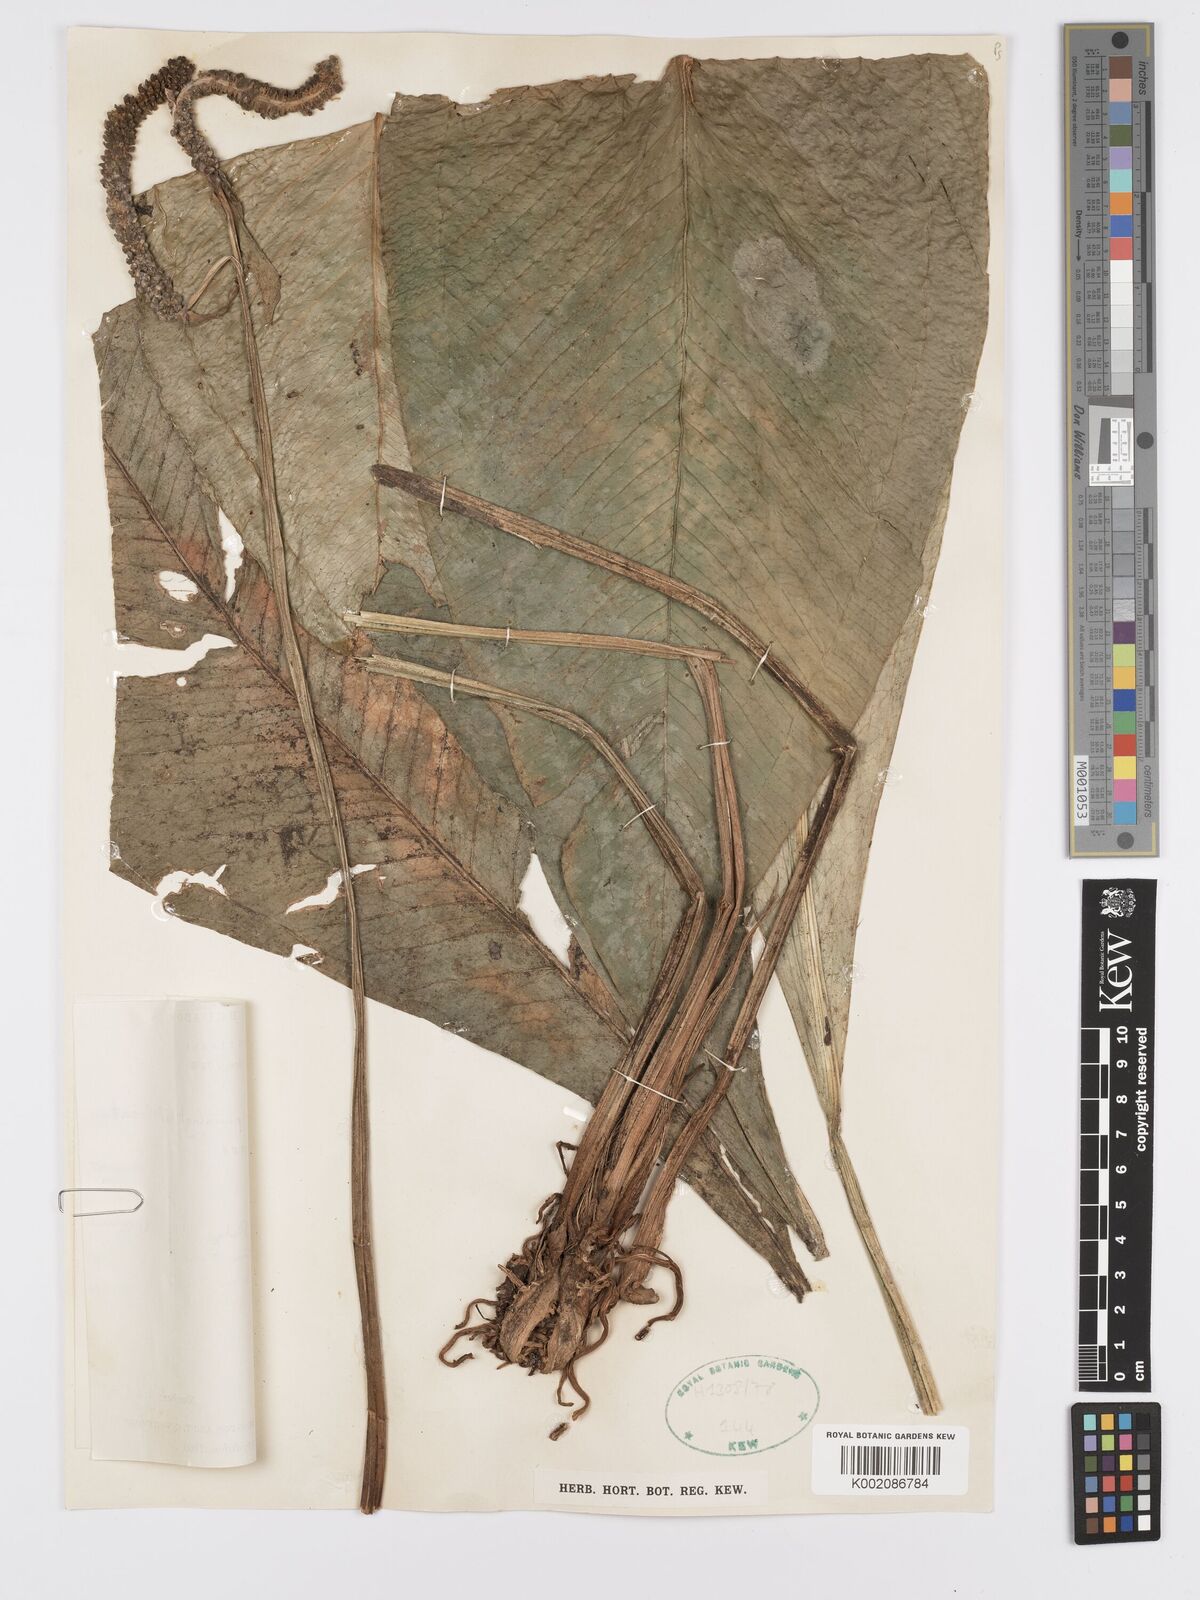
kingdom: Plantae
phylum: Tracheophyta
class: Liliopsida
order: Alismatales
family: Araceae
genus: Anthurium
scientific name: Anthurium penningtonii
